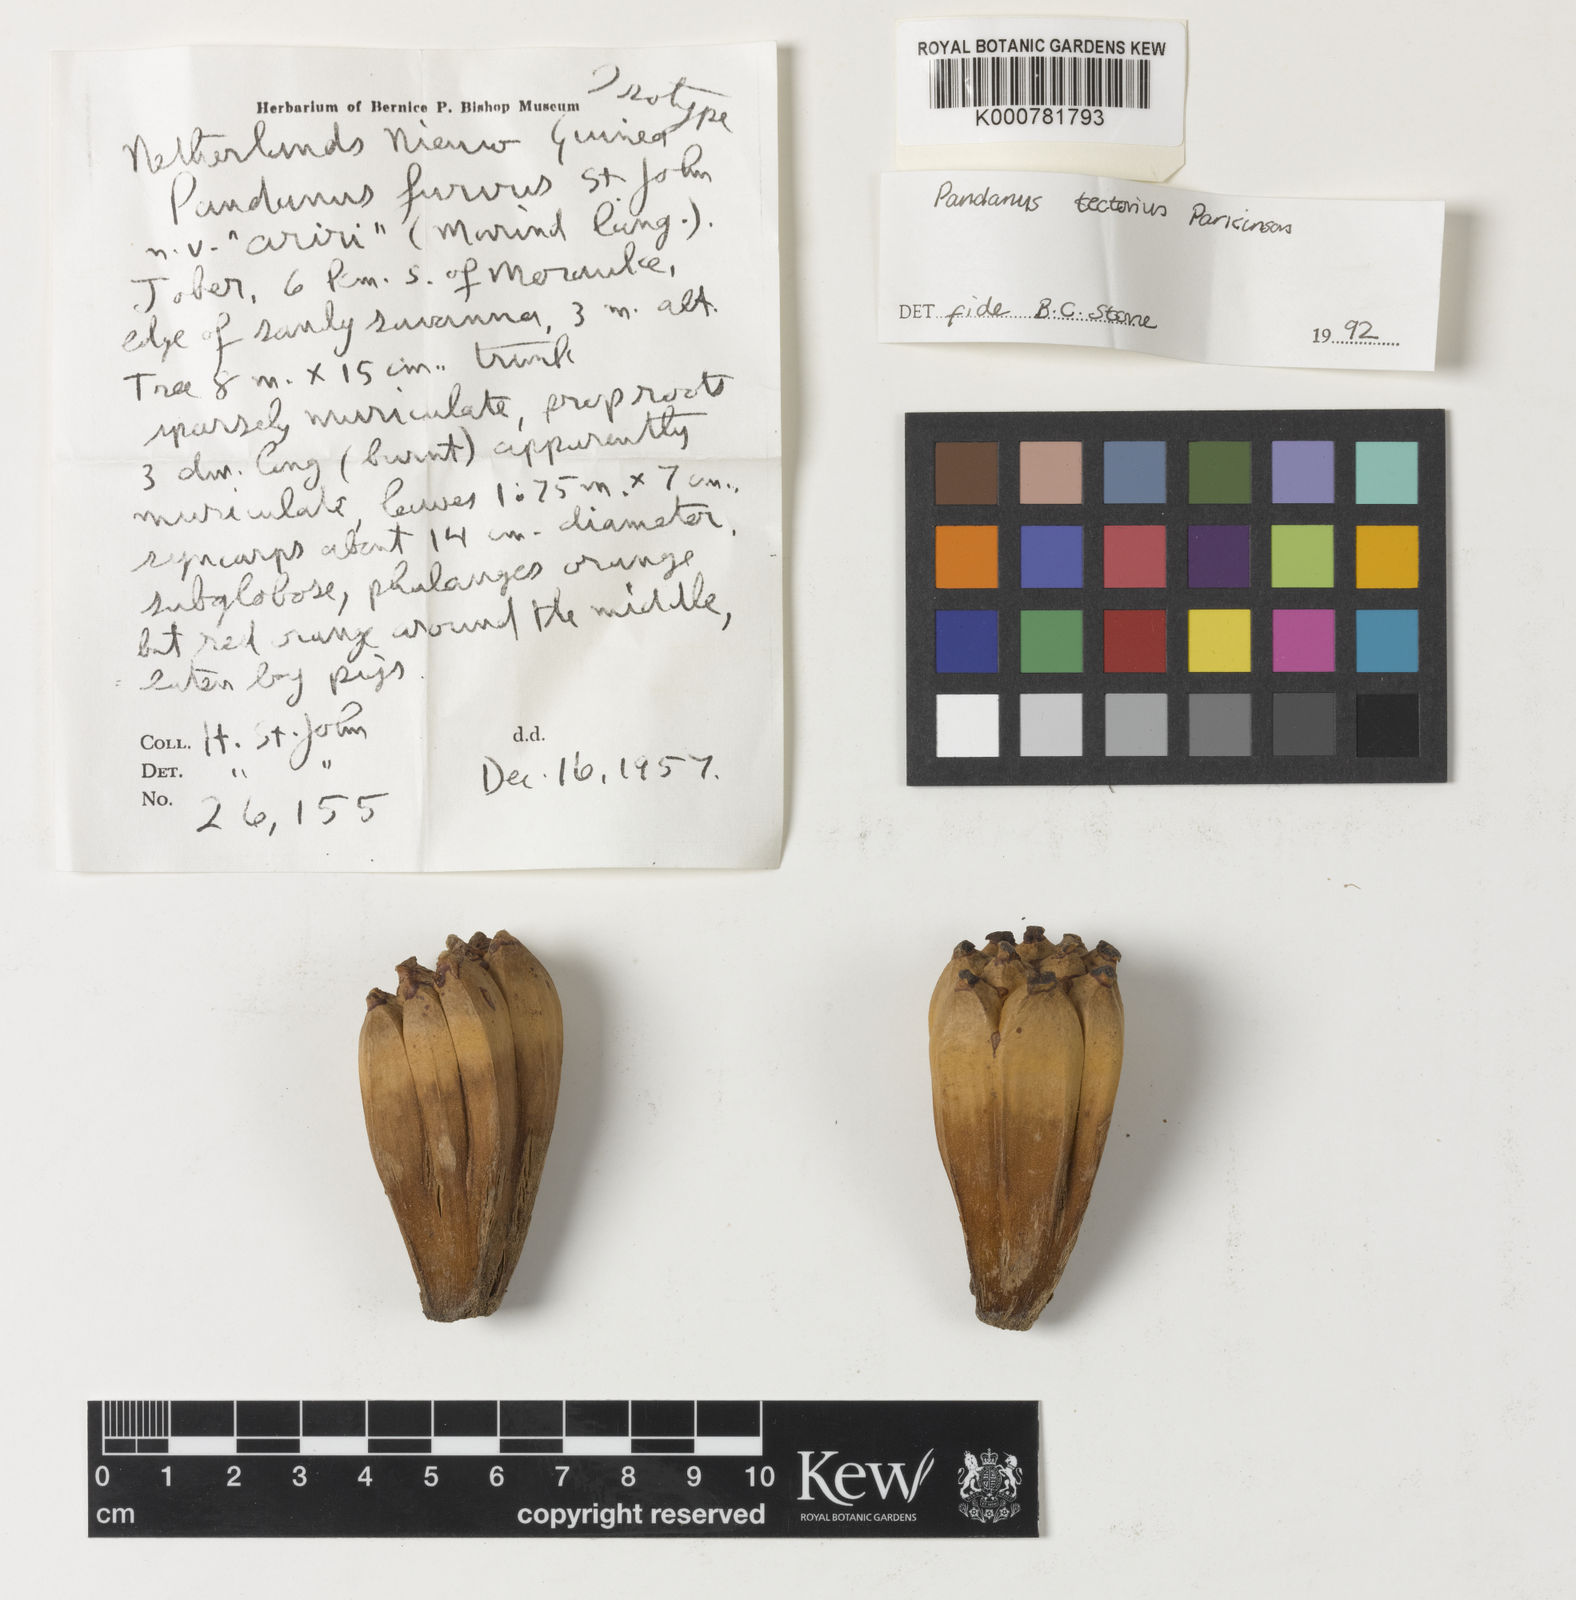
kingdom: Plantae
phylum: Tracheophyta
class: Liliopsida
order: Pandanales
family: Pandanaceae
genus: Pandanus
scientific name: Pandanus
